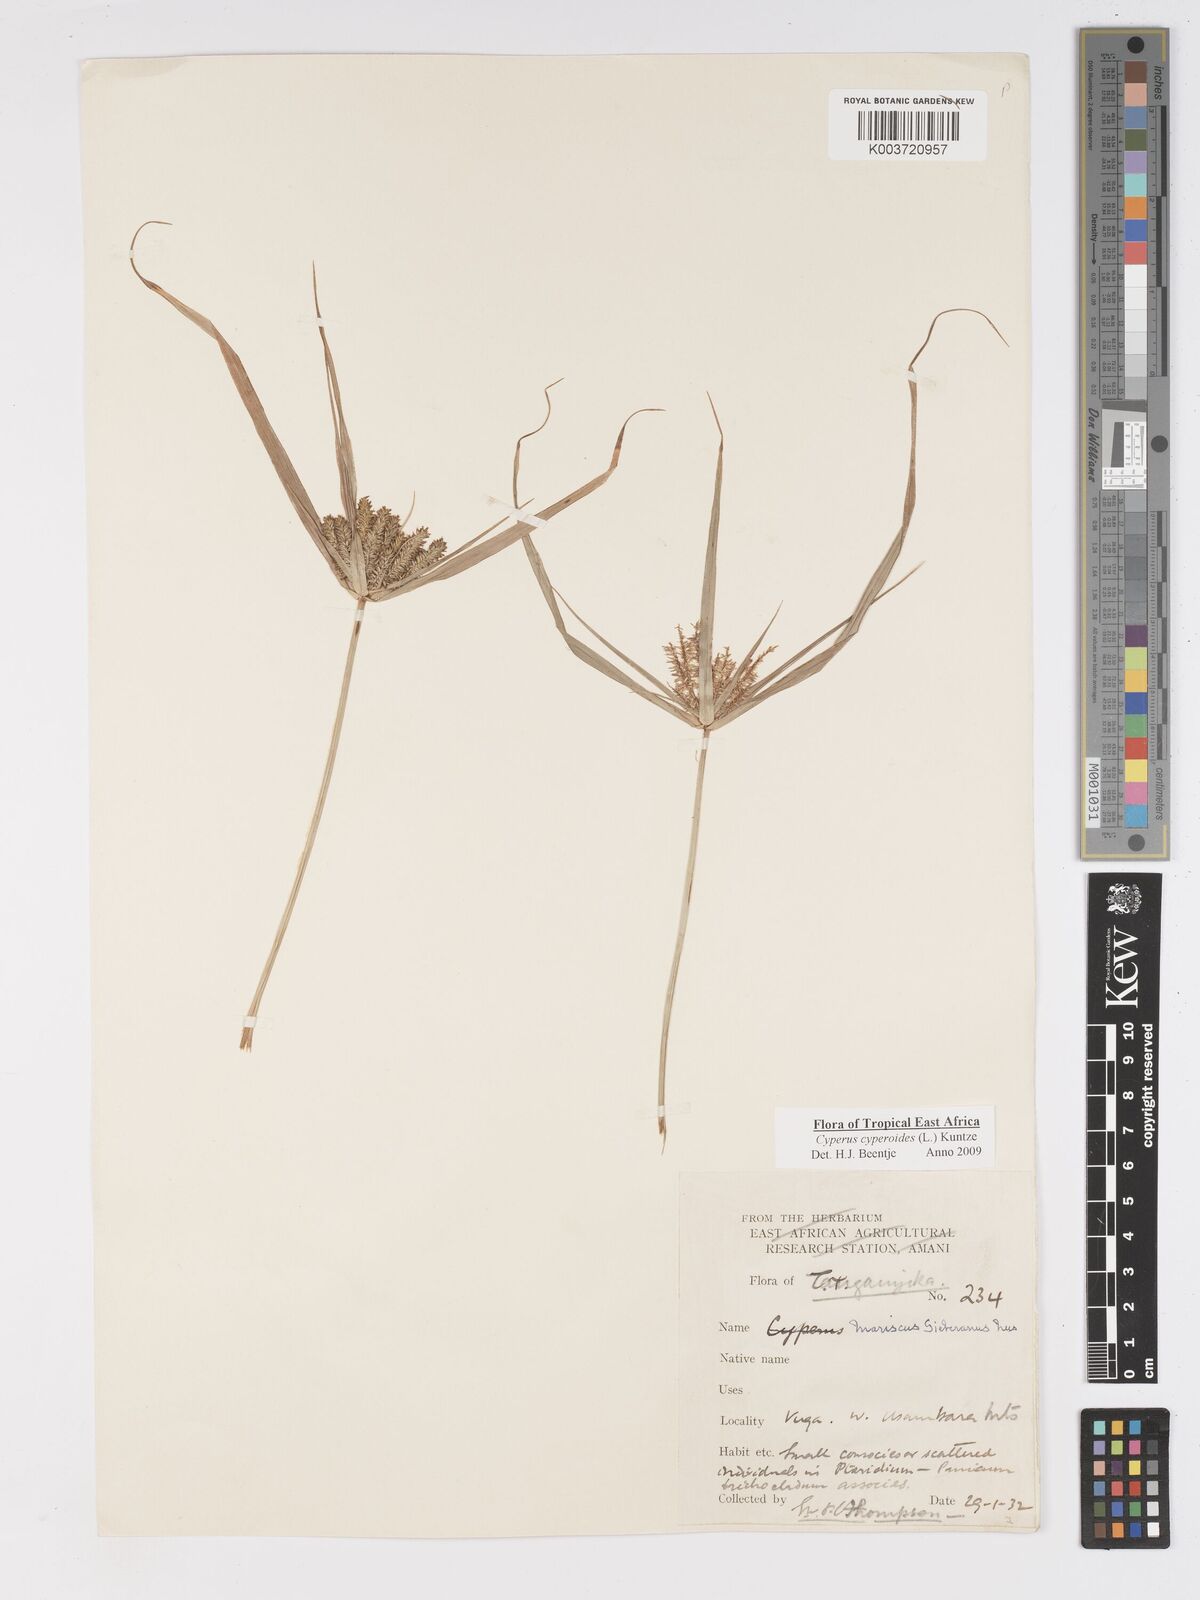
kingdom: Plantae
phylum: Tracheophyta
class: Liliopsida
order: Poales
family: Cyperaceae
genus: Cyperus
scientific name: Cyperus cyperoides
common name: Pacific island flat sedge
